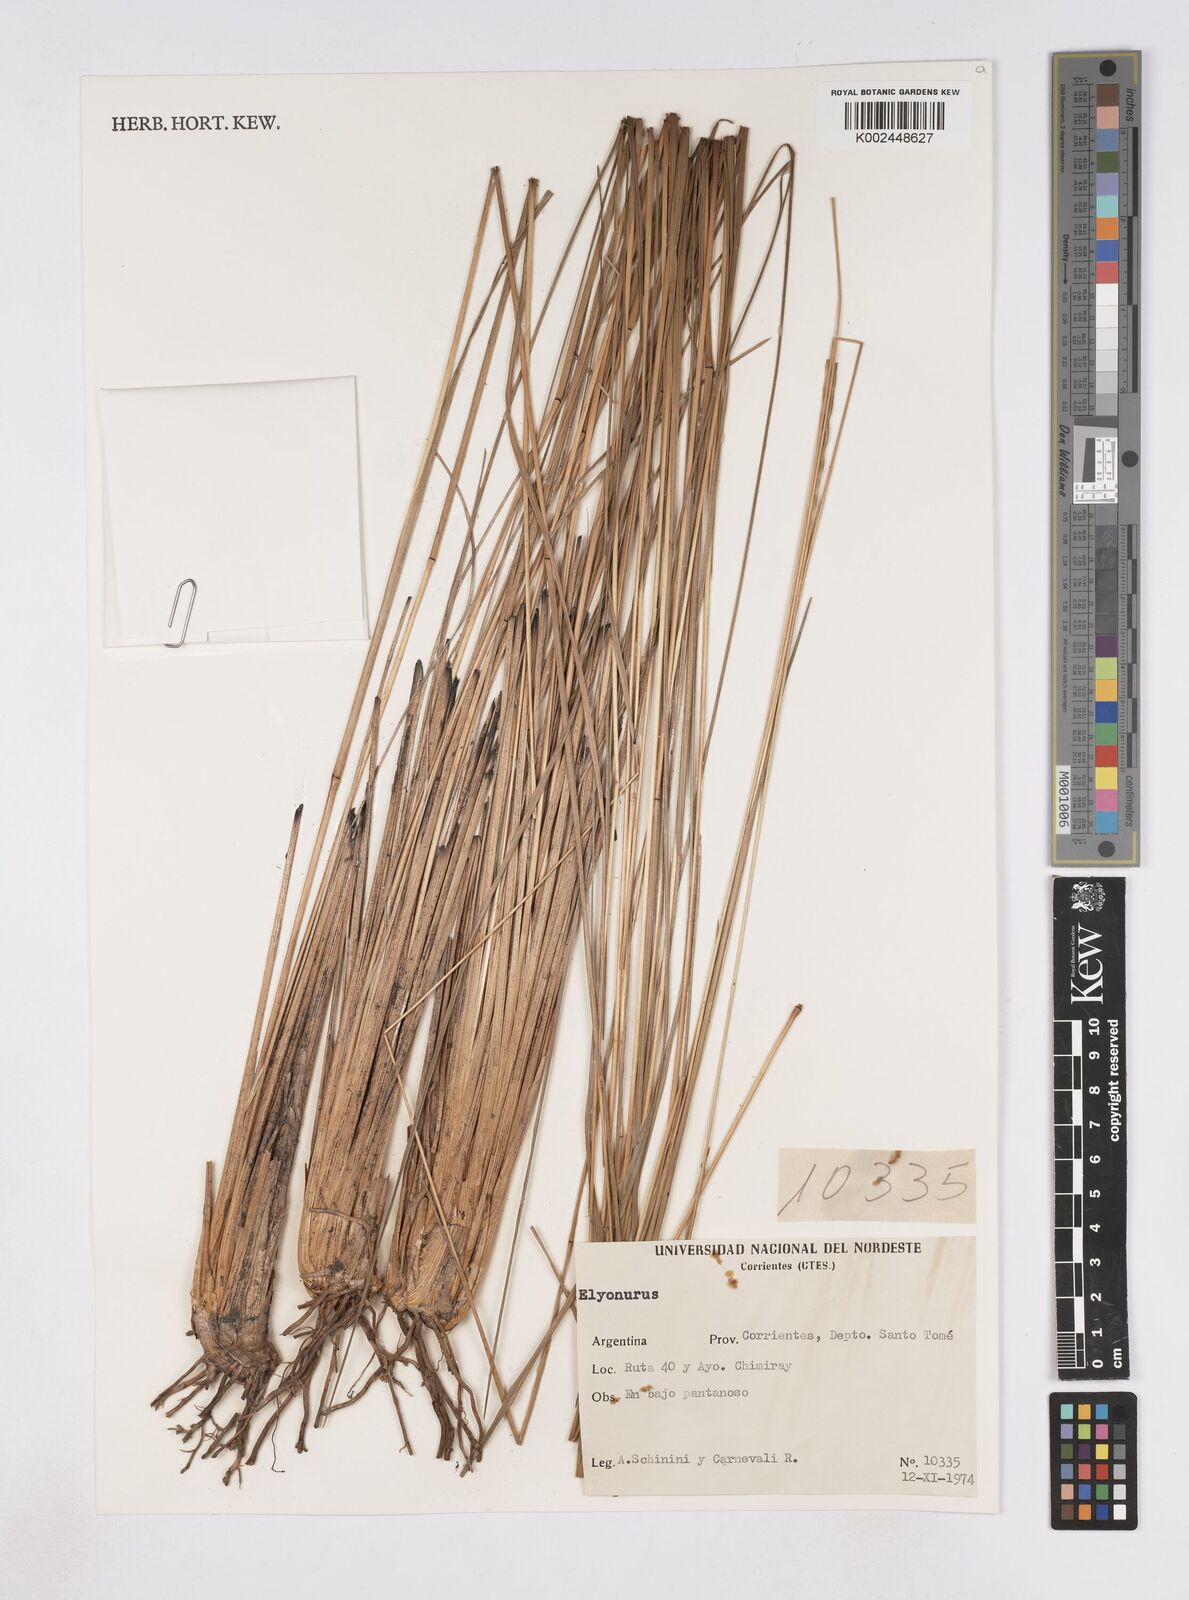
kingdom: Plantae
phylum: Tracheophyta
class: Liliopsida
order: Poales
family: Poaceae
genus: Elionurus
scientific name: Elionurus
